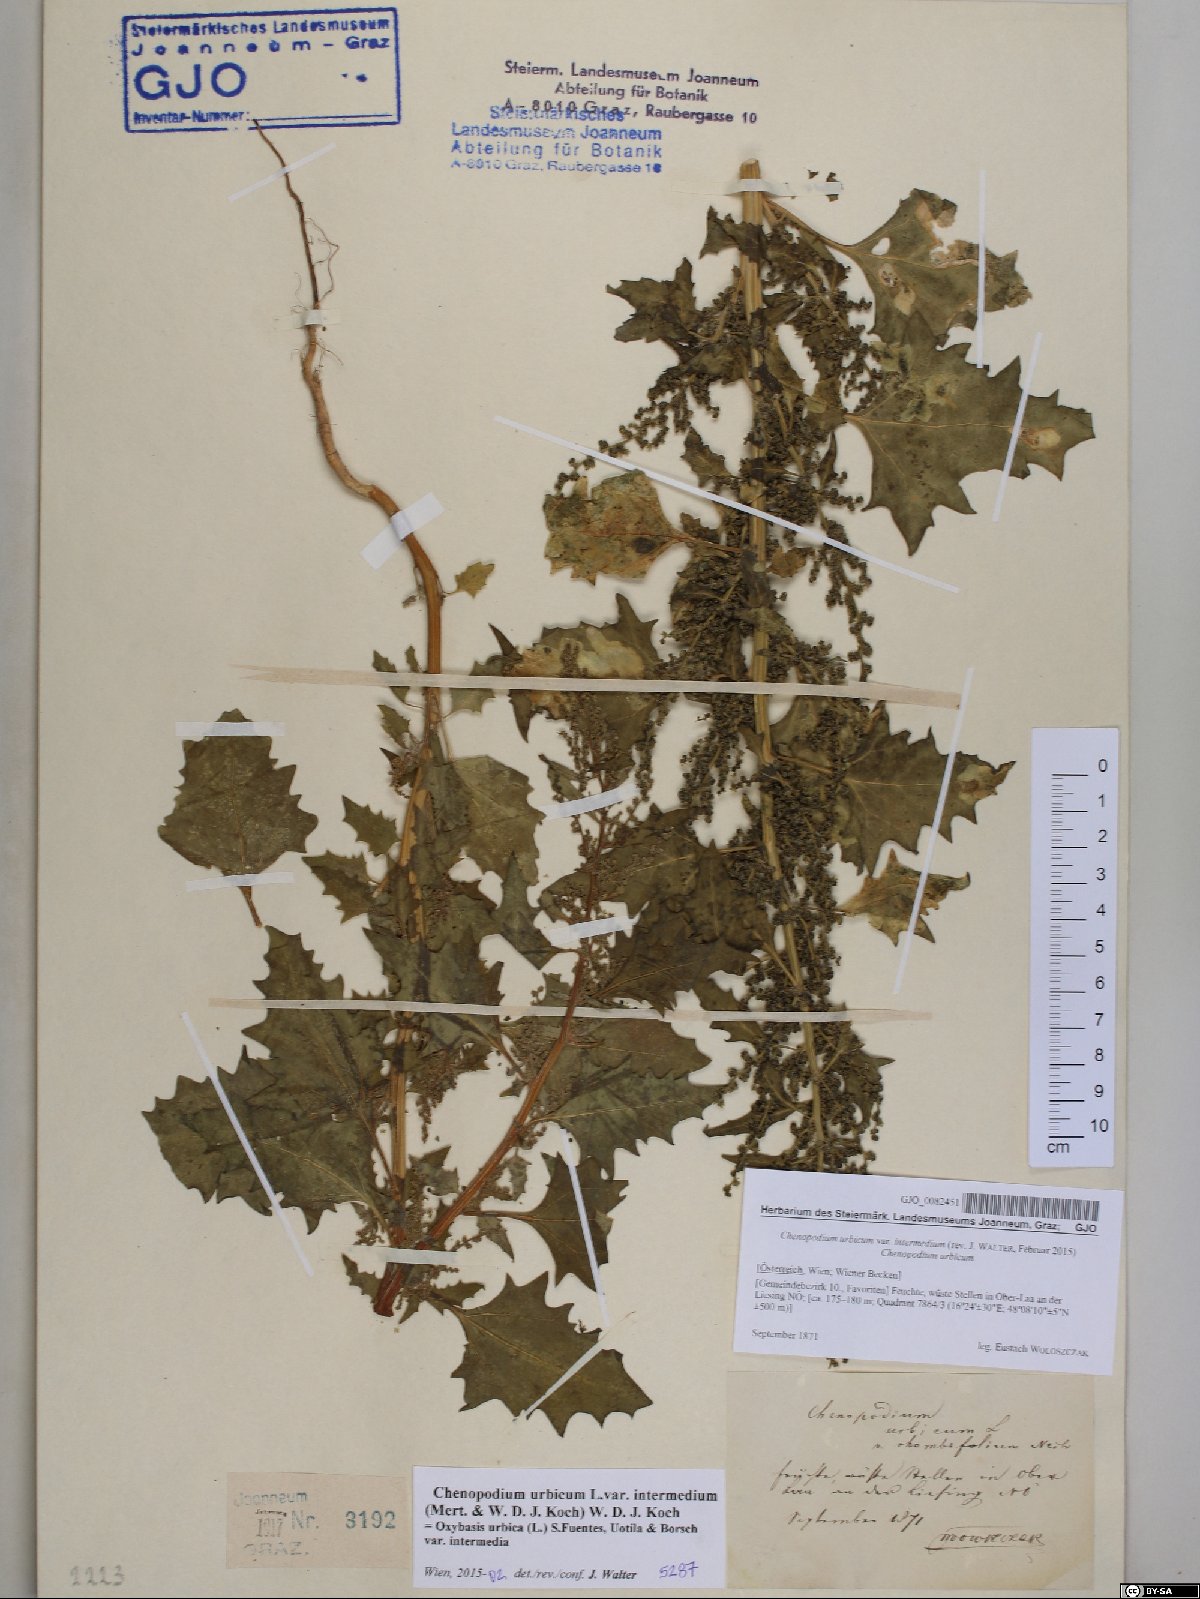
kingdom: Plantae
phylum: Tracheophyta
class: Magnoliopsida
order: Caryophyllales
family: Amaranthaceae
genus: Oxybasis
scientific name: Oxybasis rhombifolia
